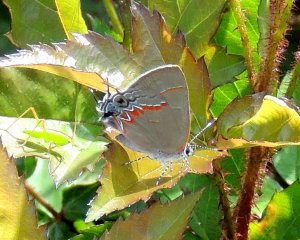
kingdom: Animalia
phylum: Arthropoda
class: Insecta
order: Lepidoptera
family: Lycaenidae
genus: Calycopis
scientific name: Calycopis cecrops
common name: Red-banded Hairstreak
